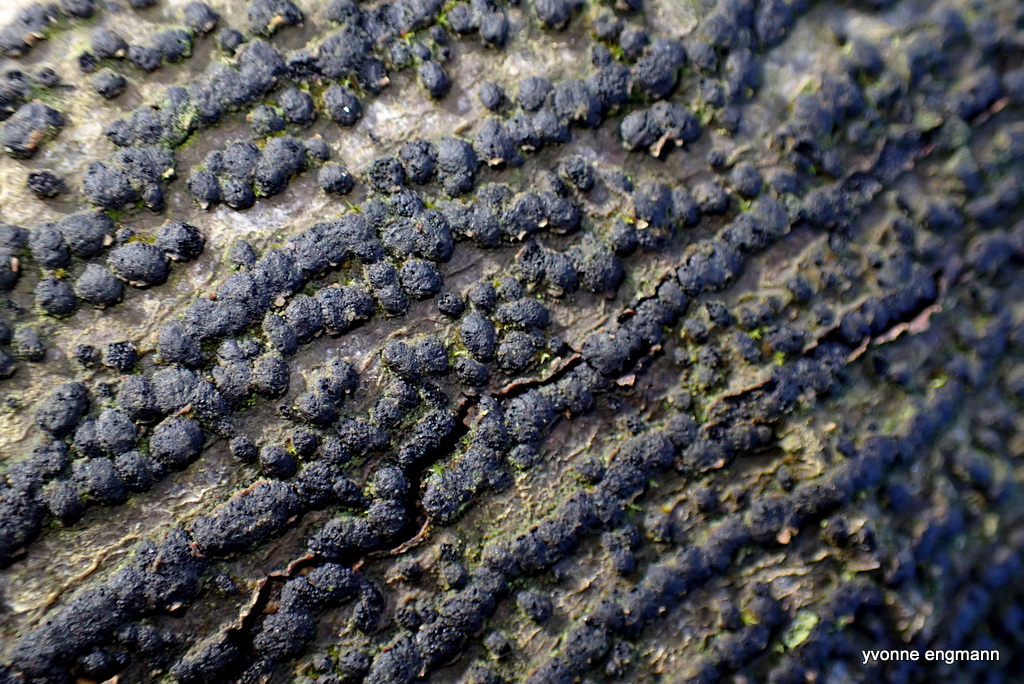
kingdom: Fungi
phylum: Ascomycota
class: Sordariomycetes
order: Xylariales
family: Melogrammataceae
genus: Melogramma
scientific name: Melogramma campylosporum
